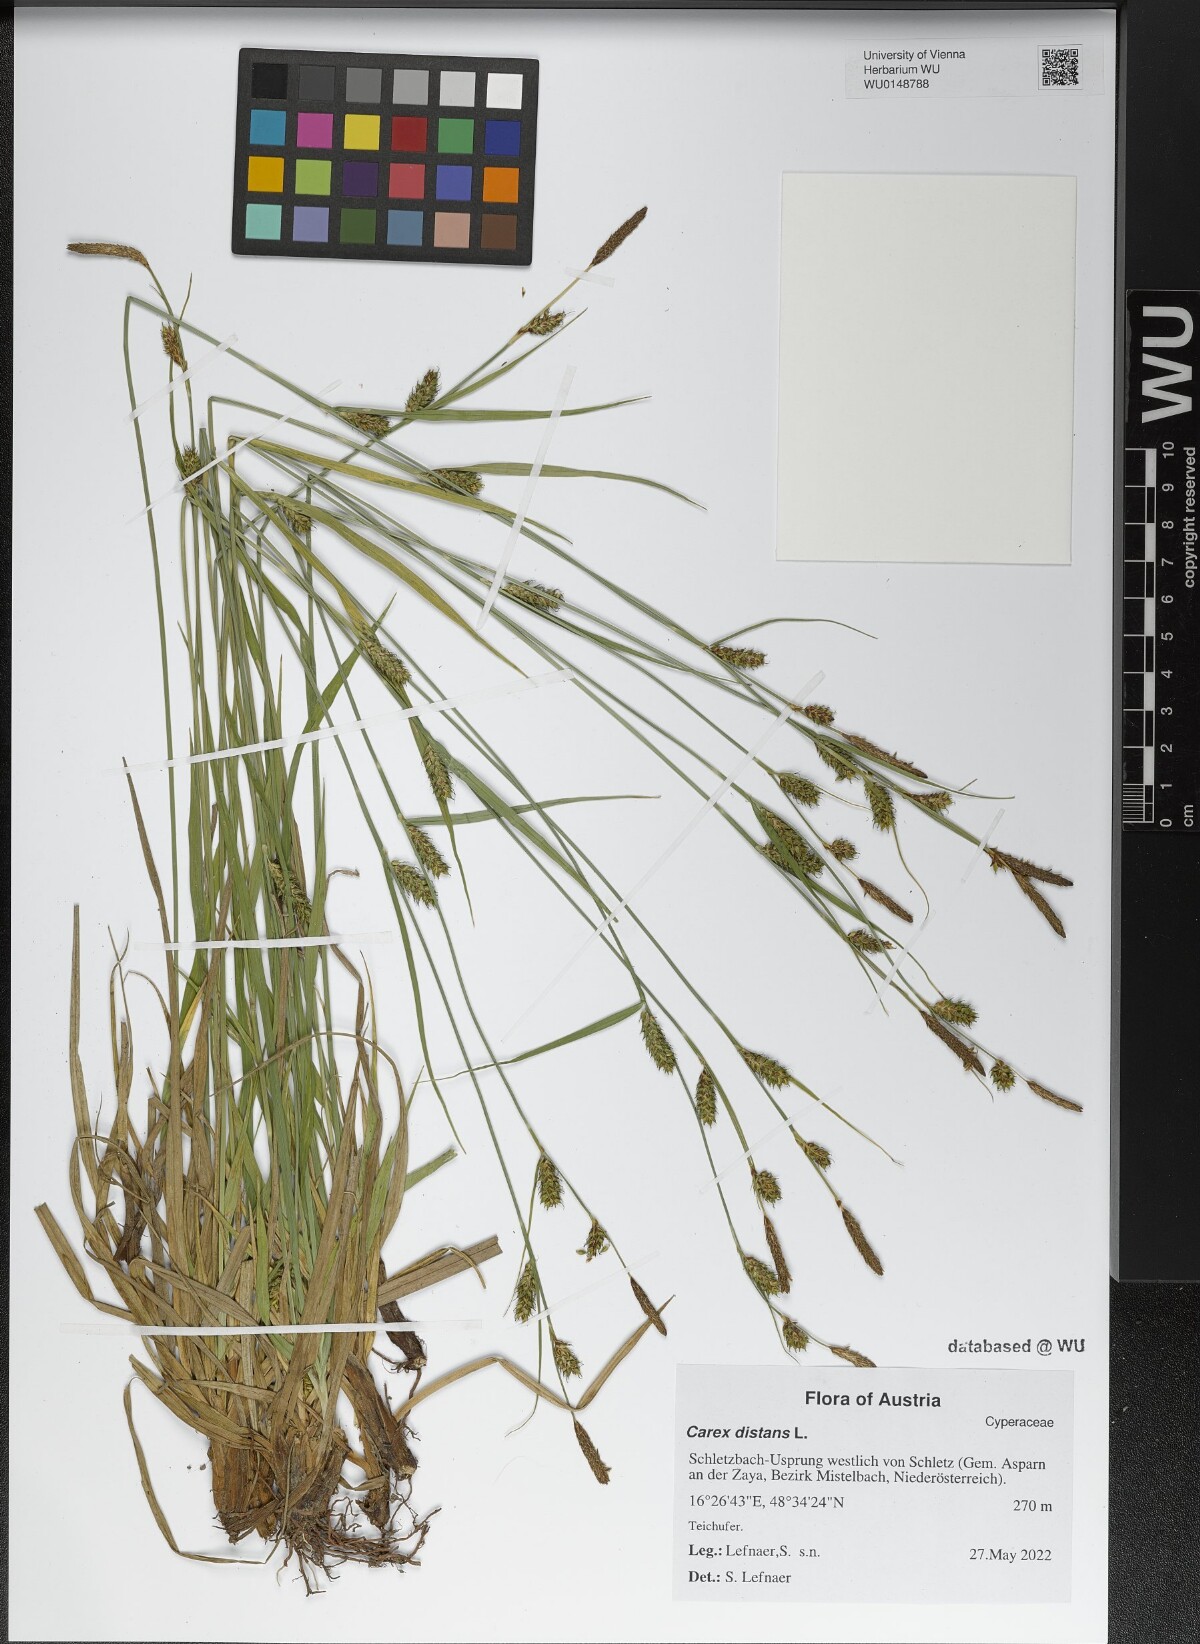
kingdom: Plantae
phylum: Tracheophyta
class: Liliopsida
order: Poales
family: Cyperaceae
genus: Carex
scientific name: Carex distans
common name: Distant sedge
